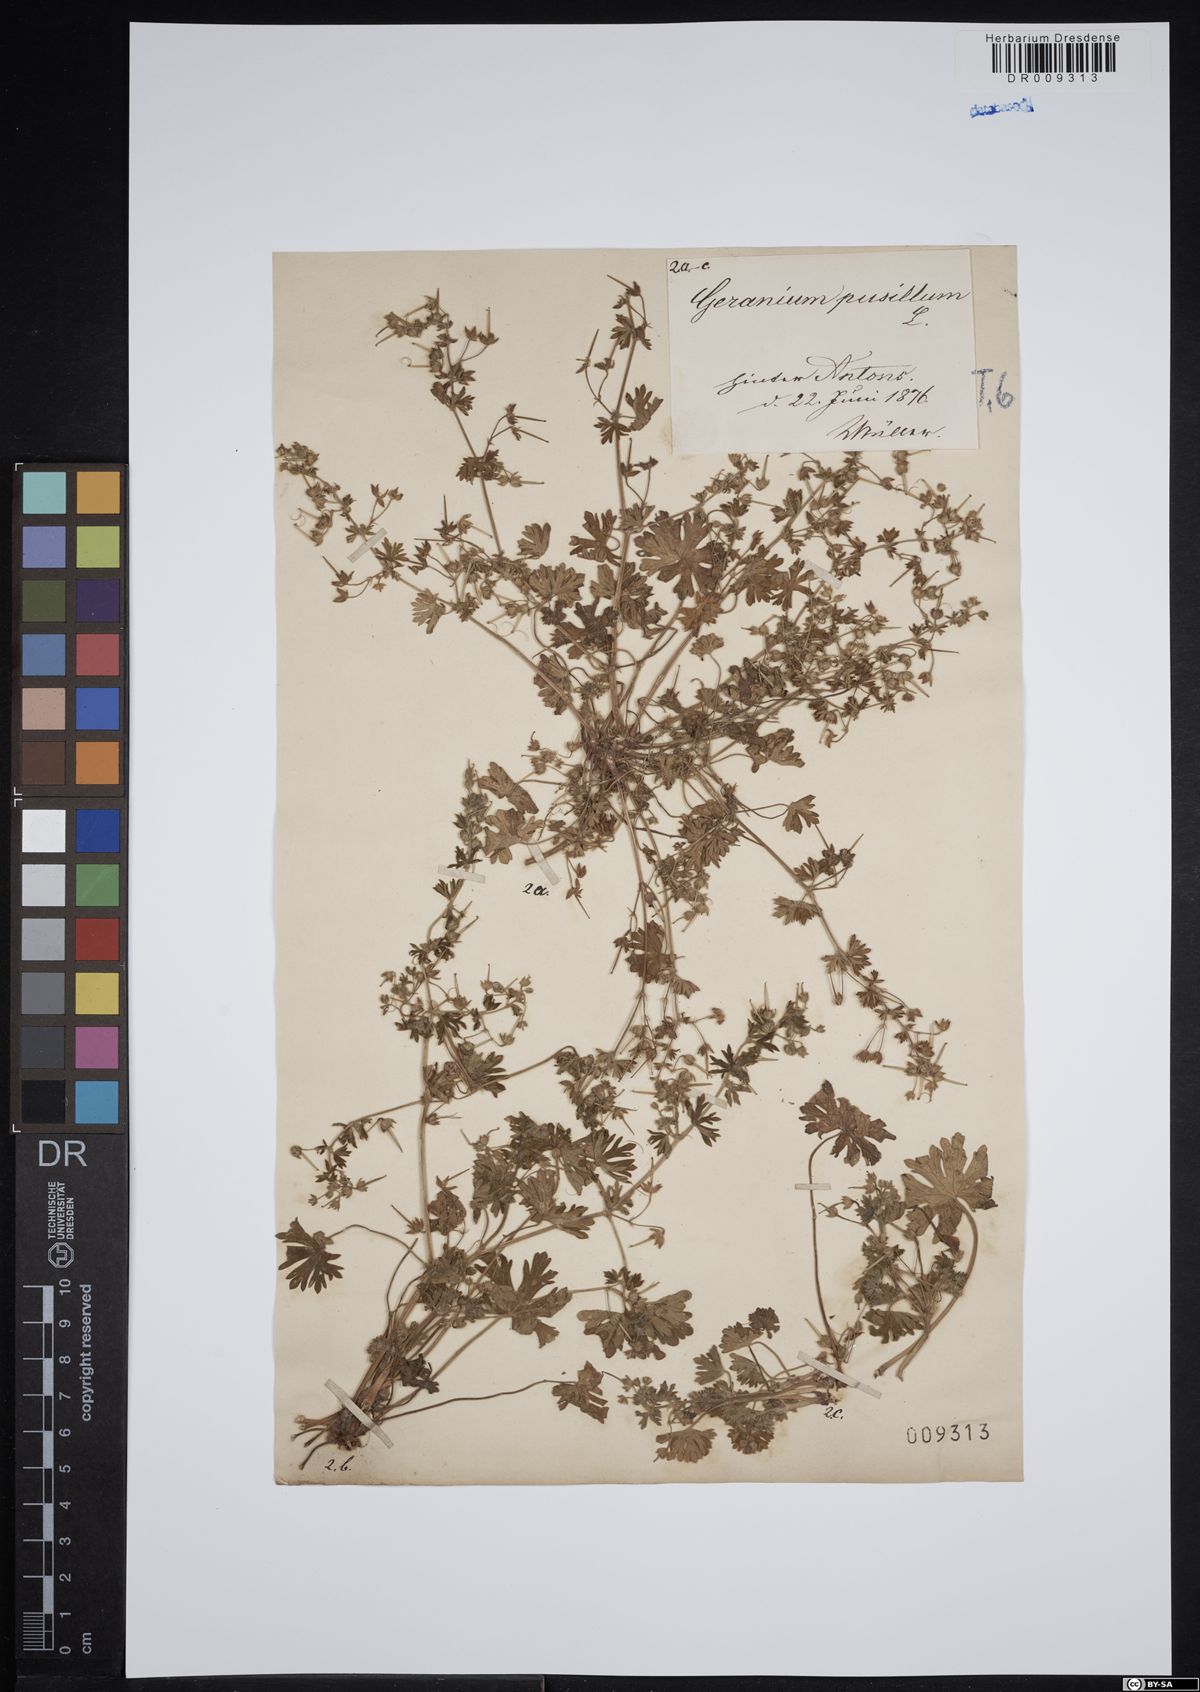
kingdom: Plantae
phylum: Tracheophyta
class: Magnoliopsida
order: Geraniales
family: Geraniaceae
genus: Geranium
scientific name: Geranium pusillum
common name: Small geranium
